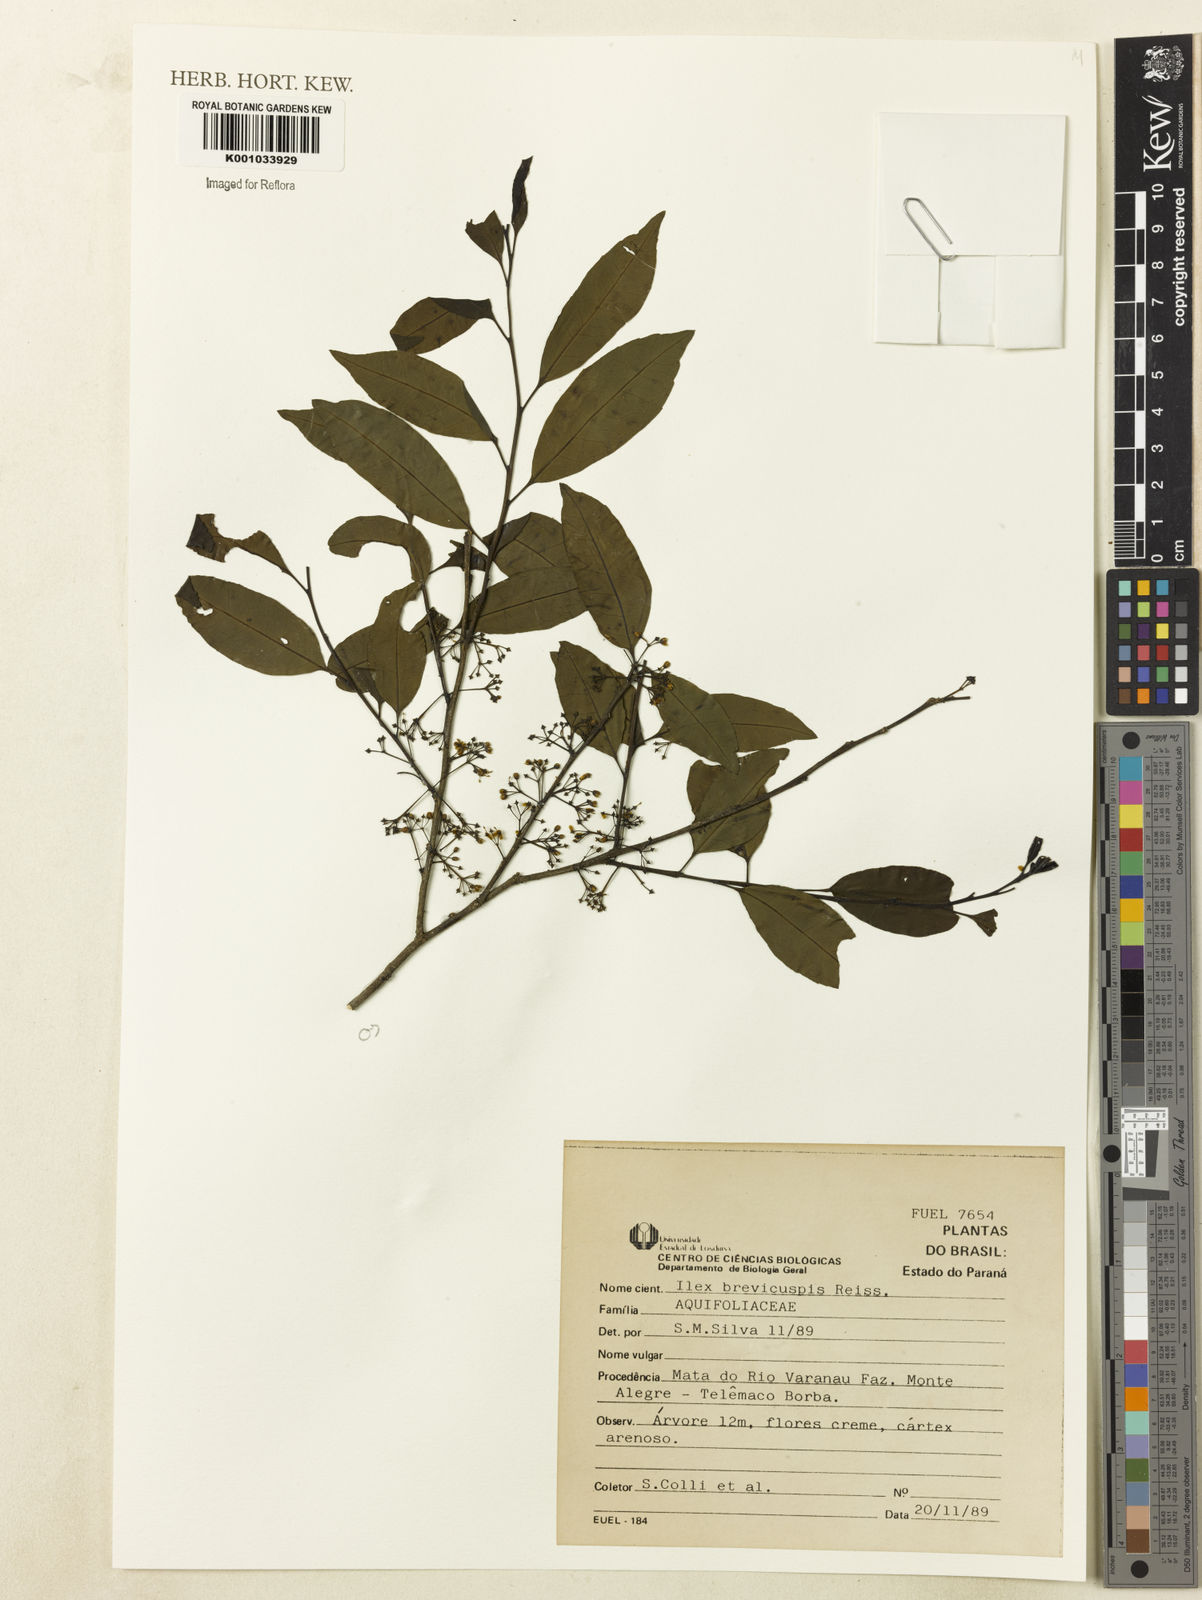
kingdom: Plantae
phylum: Tracheophyta
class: Magnoliopsida
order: Aquifoliales
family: Aquifoliaceae
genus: Ilex
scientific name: Ilex brevicuspis
